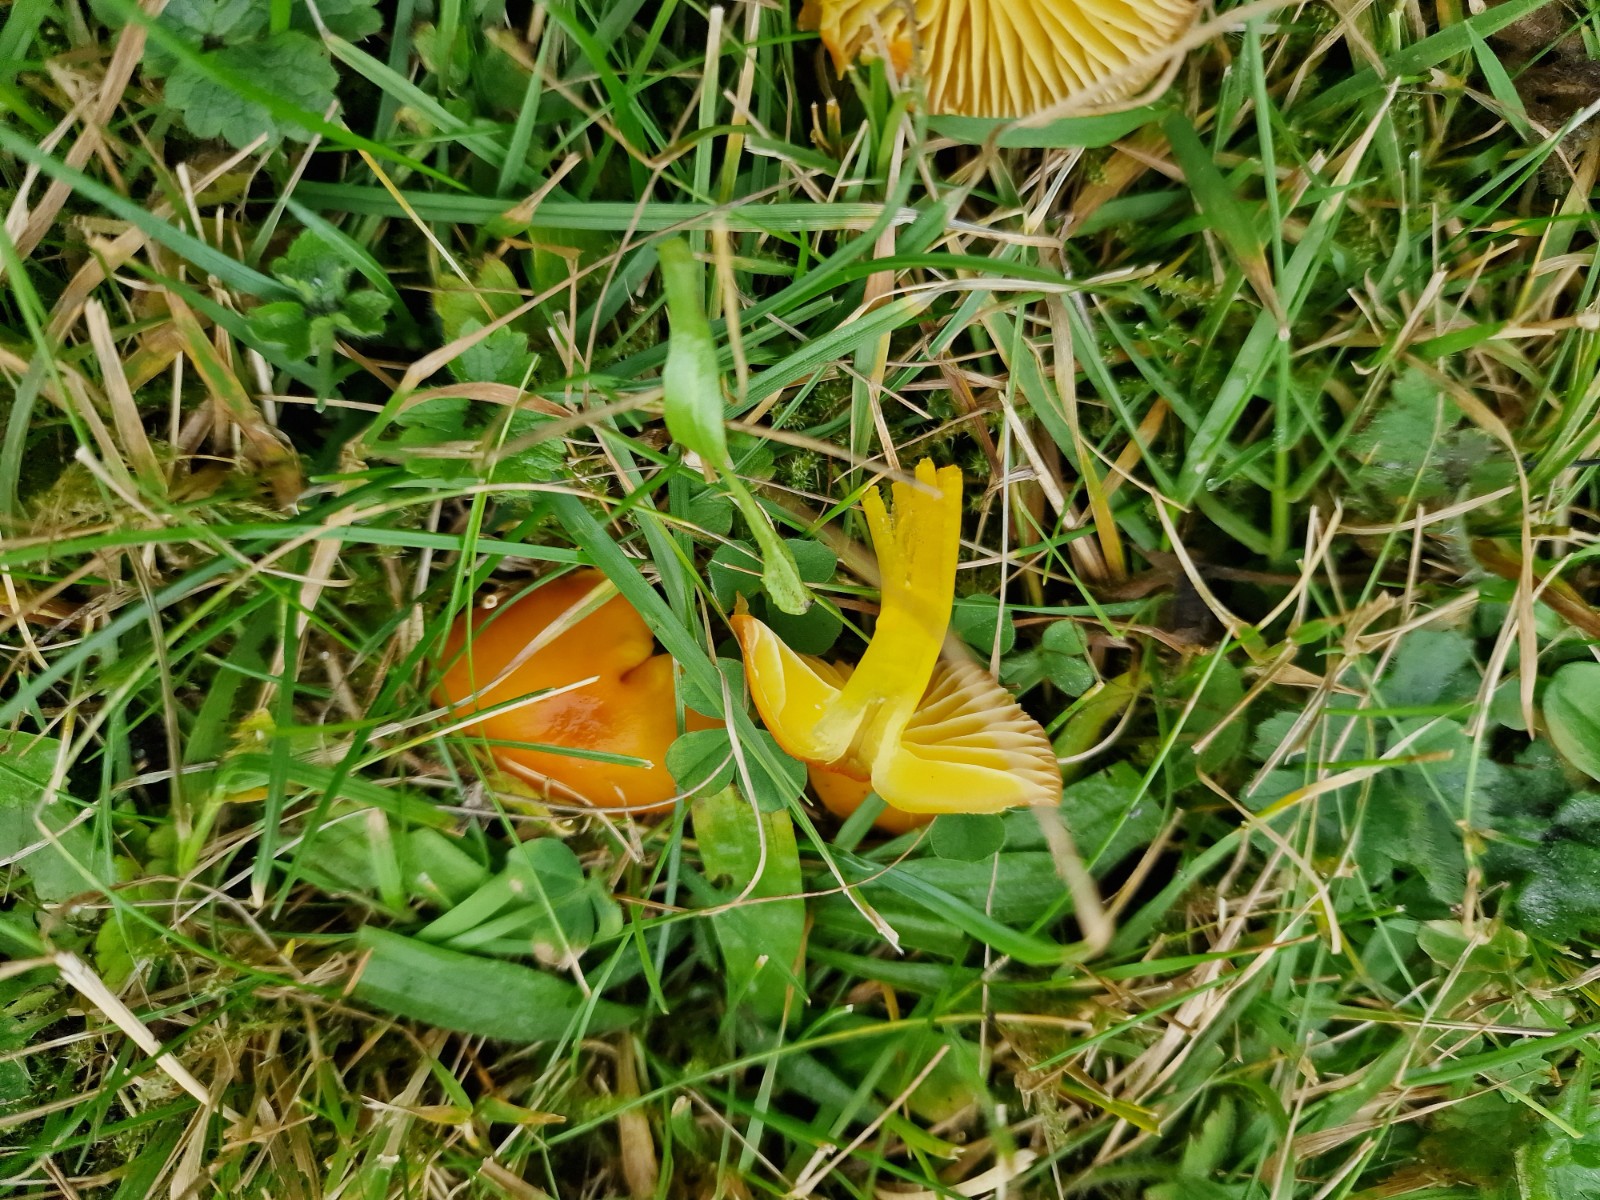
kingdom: Fungi
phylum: Basidiomycota
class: Agaricomycetes
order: Agaricales
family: Hygrophoraceae
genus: Hygrocybe
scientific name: Hygrocybe ceracea
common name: voksgul vokshat
